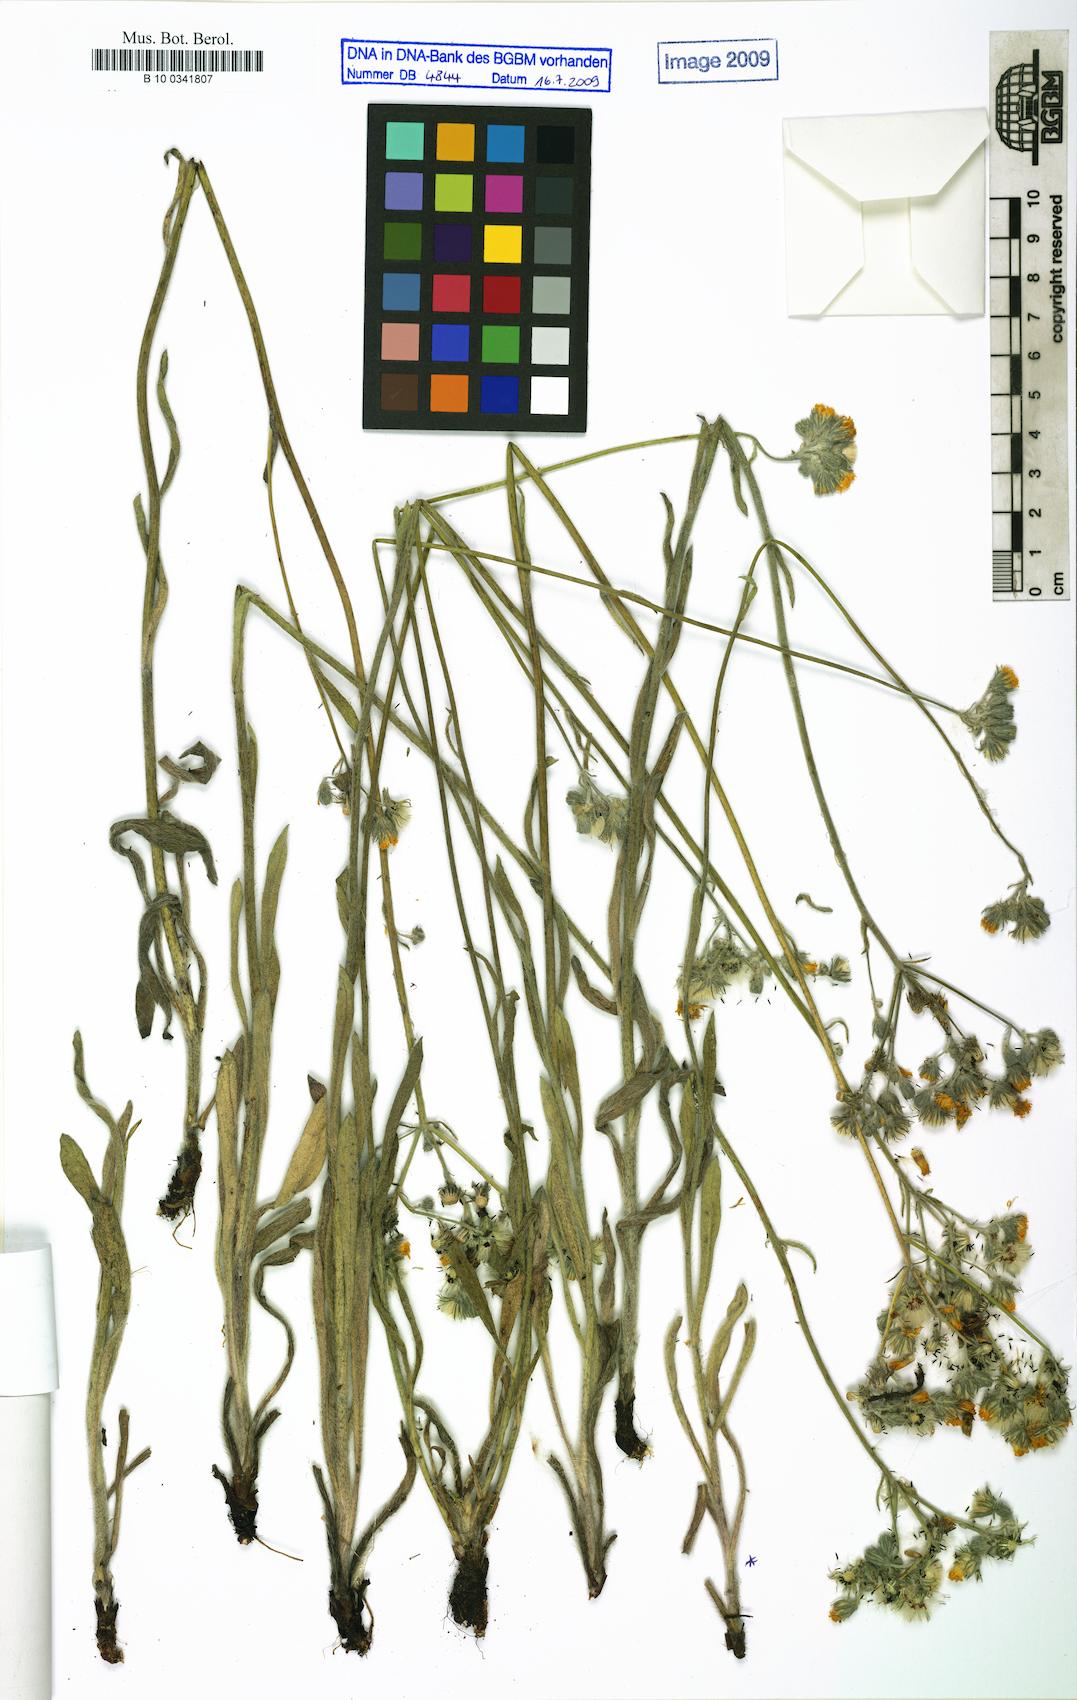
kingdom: Plantae
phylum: Tracheophyta
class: Magnoliopsida
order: Asterales
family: Asteraceae
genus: Pilosella
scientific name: Pilosella echioides
